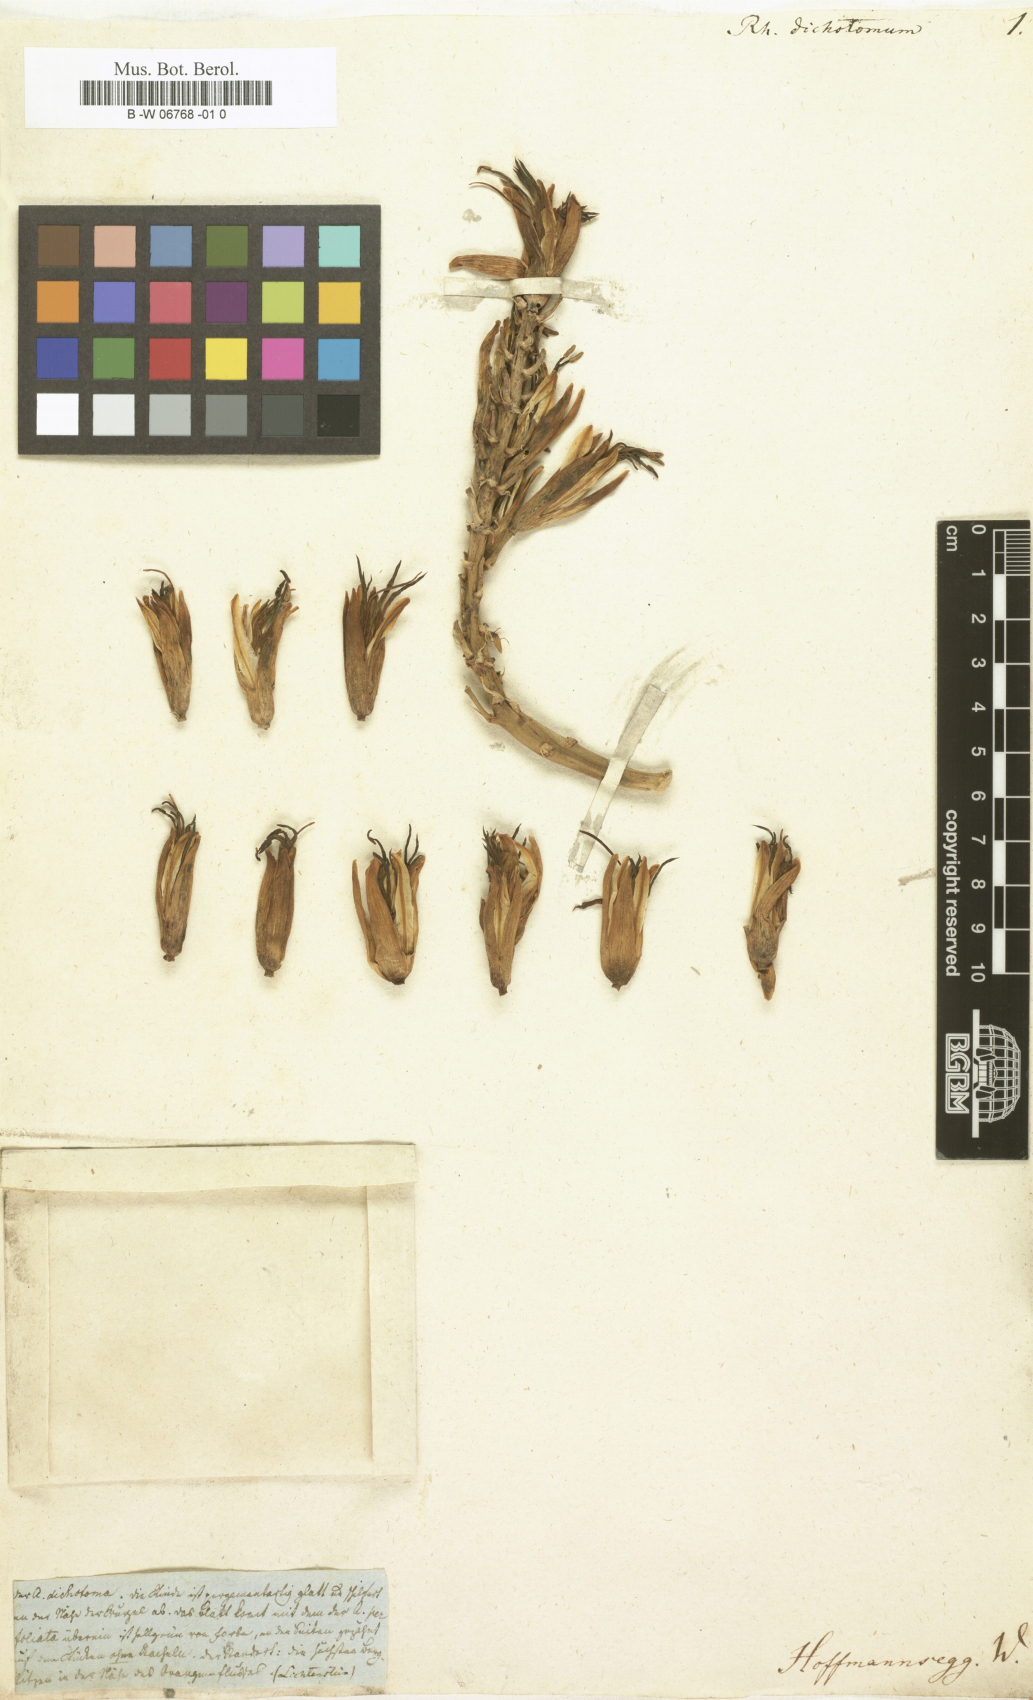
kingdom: Plantae
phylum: Tracheophyta
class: Liliopsida
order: Asparagales
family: Asphodelaceae
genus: Aloidendron
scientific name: Aloidendron dichotomum
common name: Quiver tree
